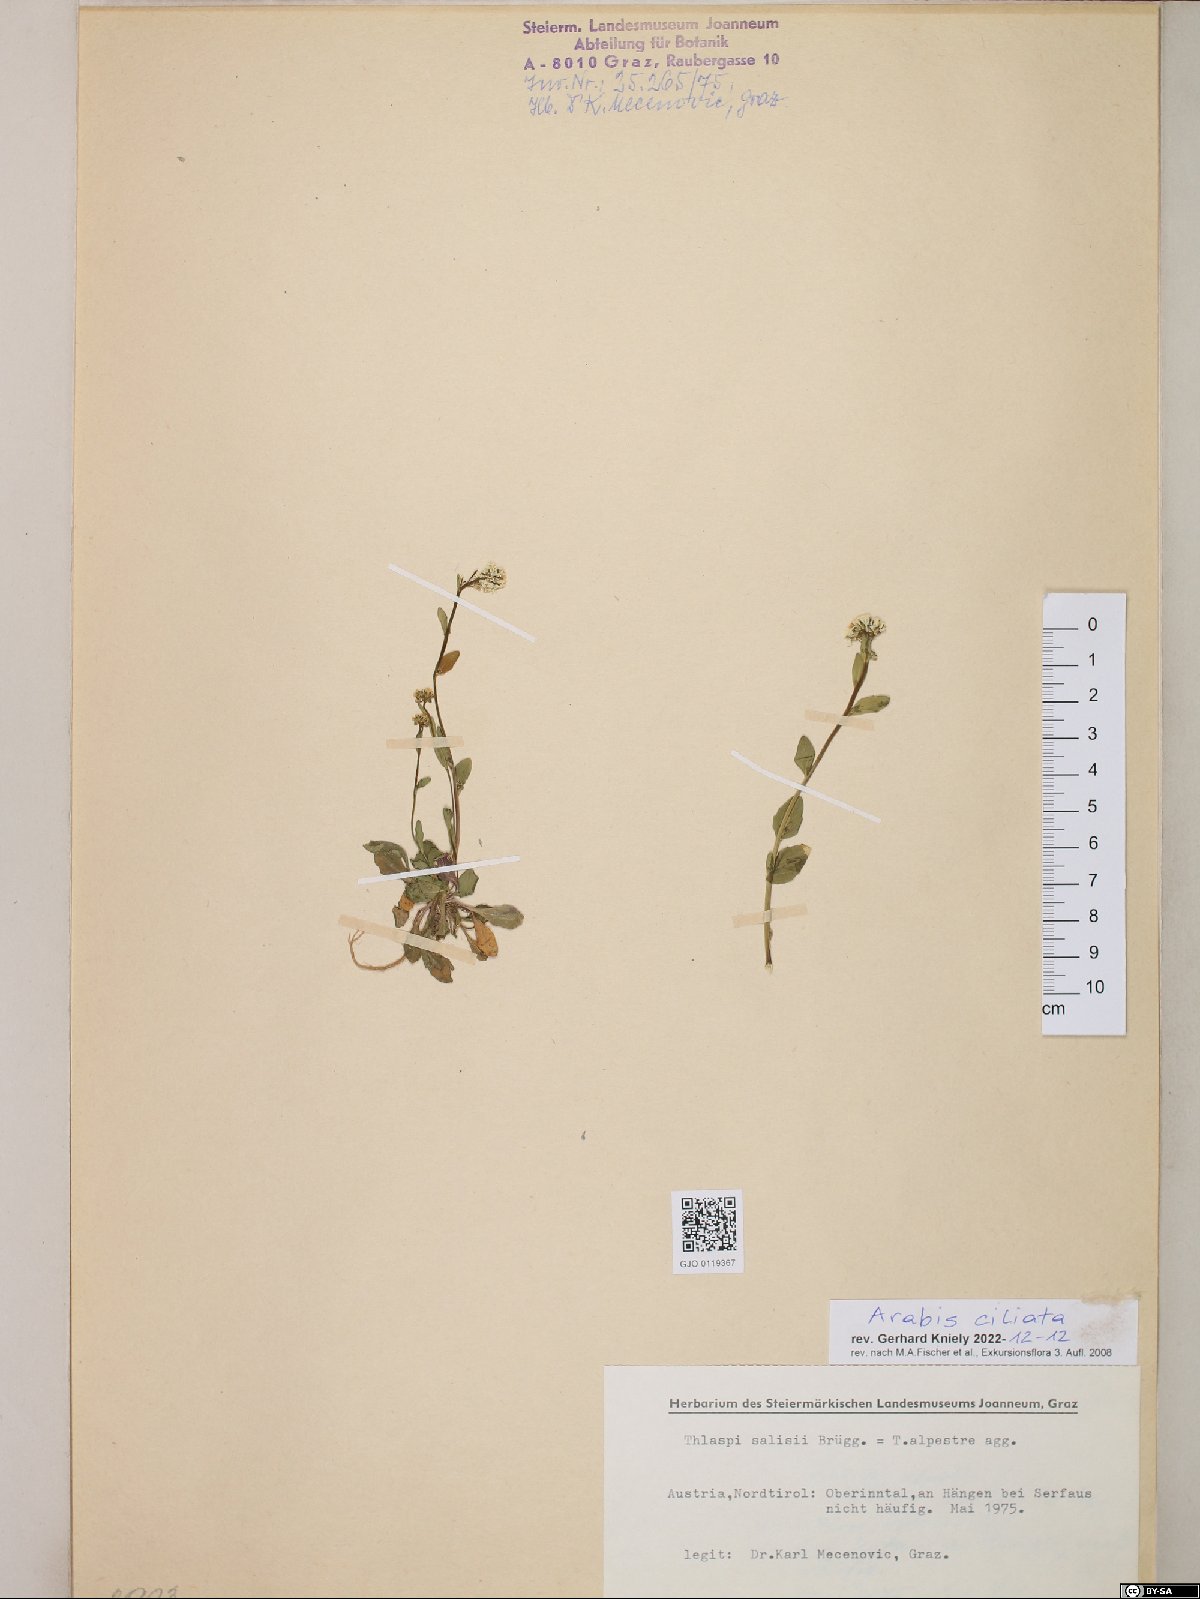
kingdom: Plantae
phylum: Tracheophyta
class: Magnoliopsida
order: Brassicales
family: Brassicaceae
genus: Arabis
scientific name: Arabis ciliata
